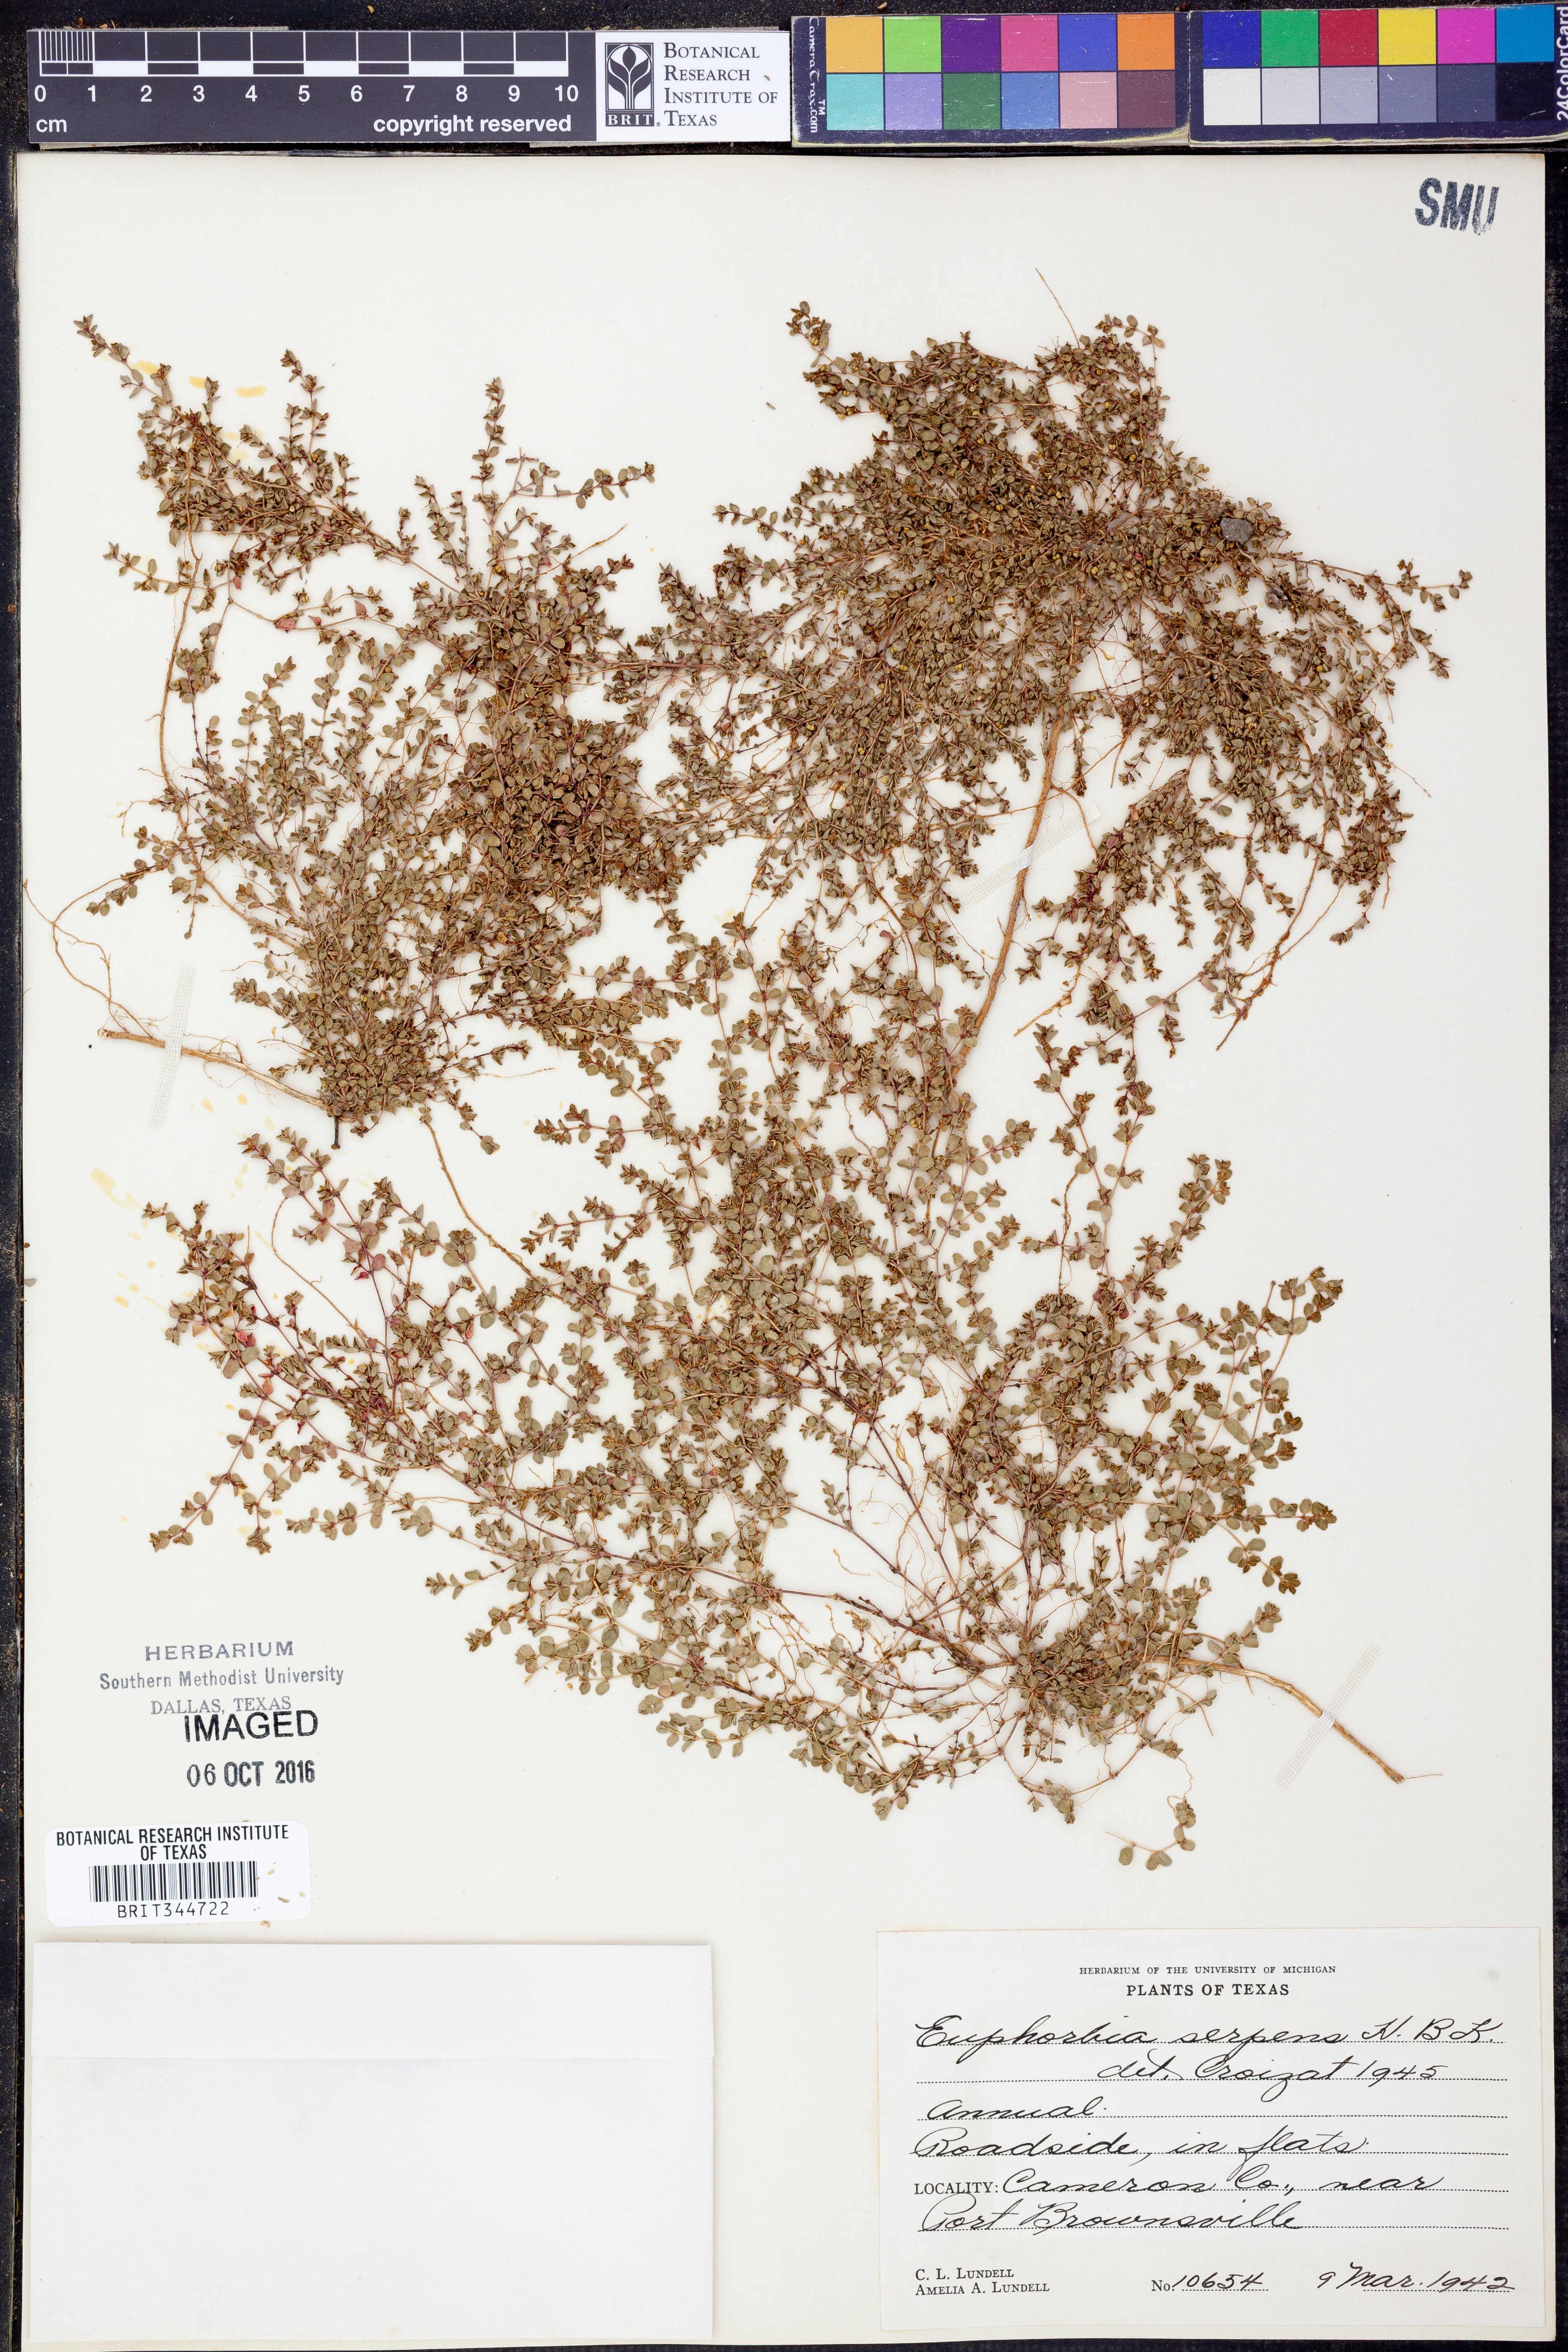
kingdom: Plantae
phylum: Tracheophyta
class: Magnoliopsida
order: Malpighiales
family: Euphorbiaceae
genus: Euphorbia
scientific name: Euphorbia serpens
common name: Matted sandmat
